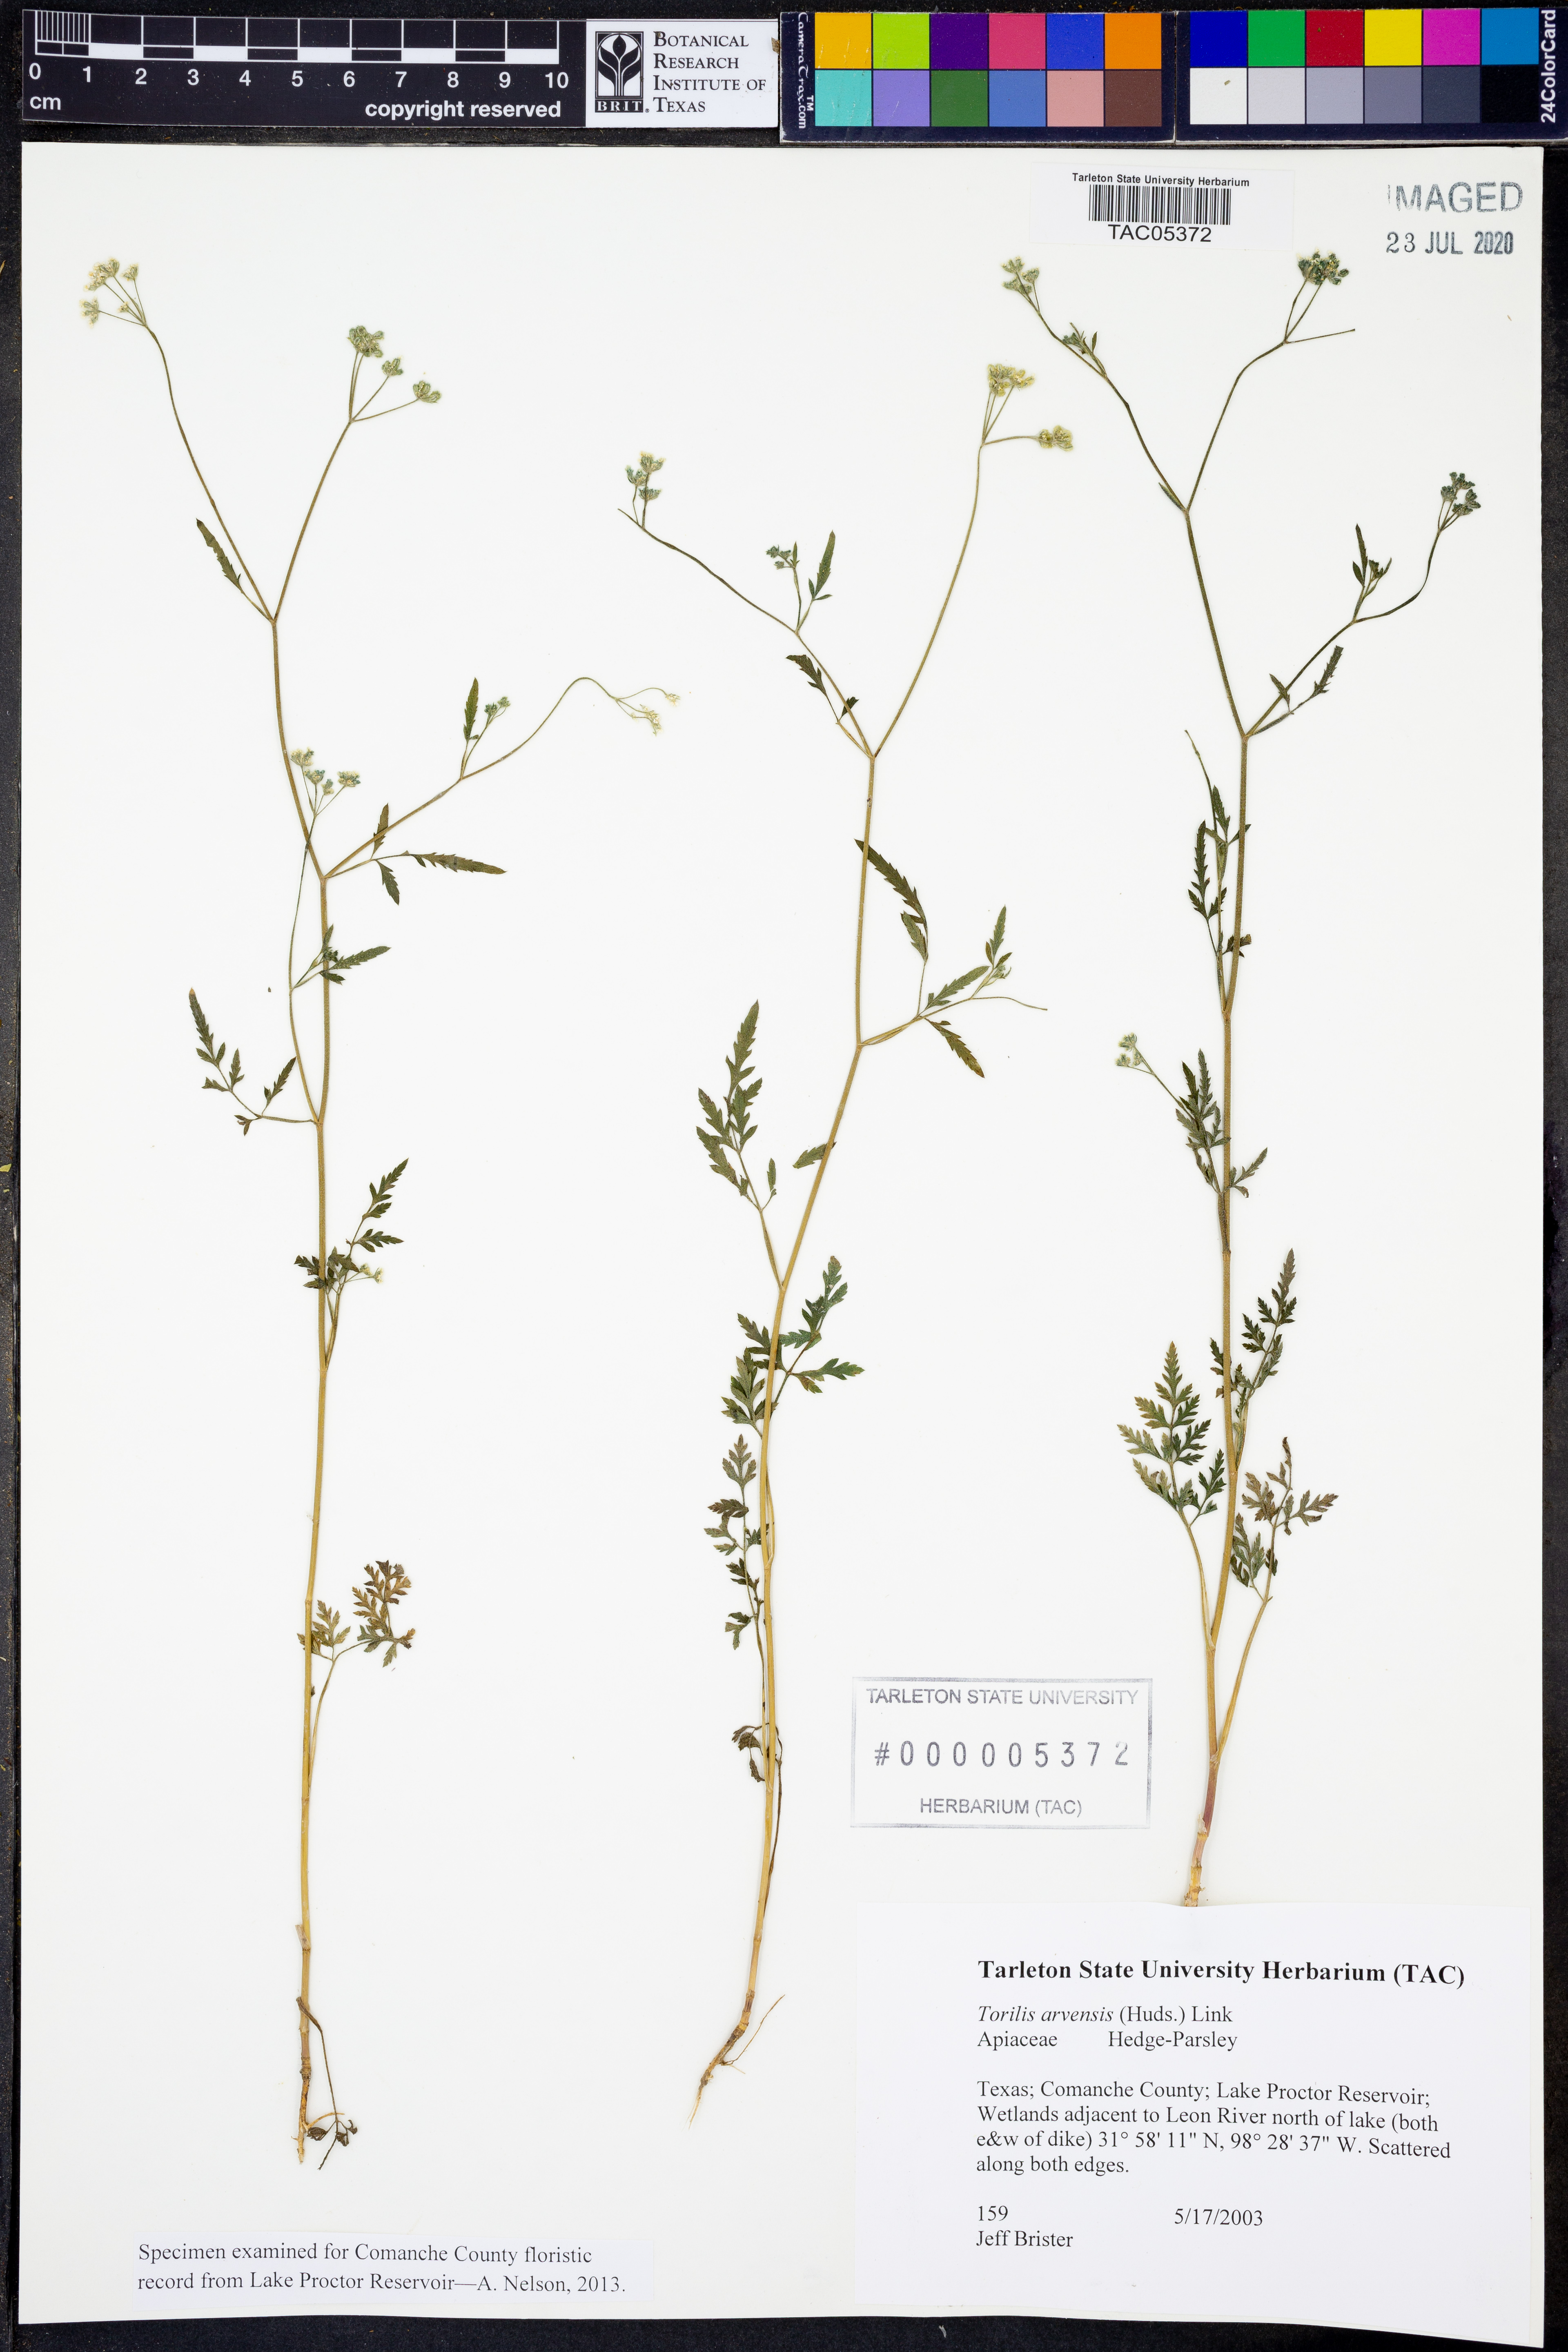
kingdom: Plantae
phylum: Tracheophyta
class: Magnoliopsida
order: Apiales
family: Apiaceae
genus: Torilis
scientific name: Torilis arvensis
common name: Spreading hedge-parsley
